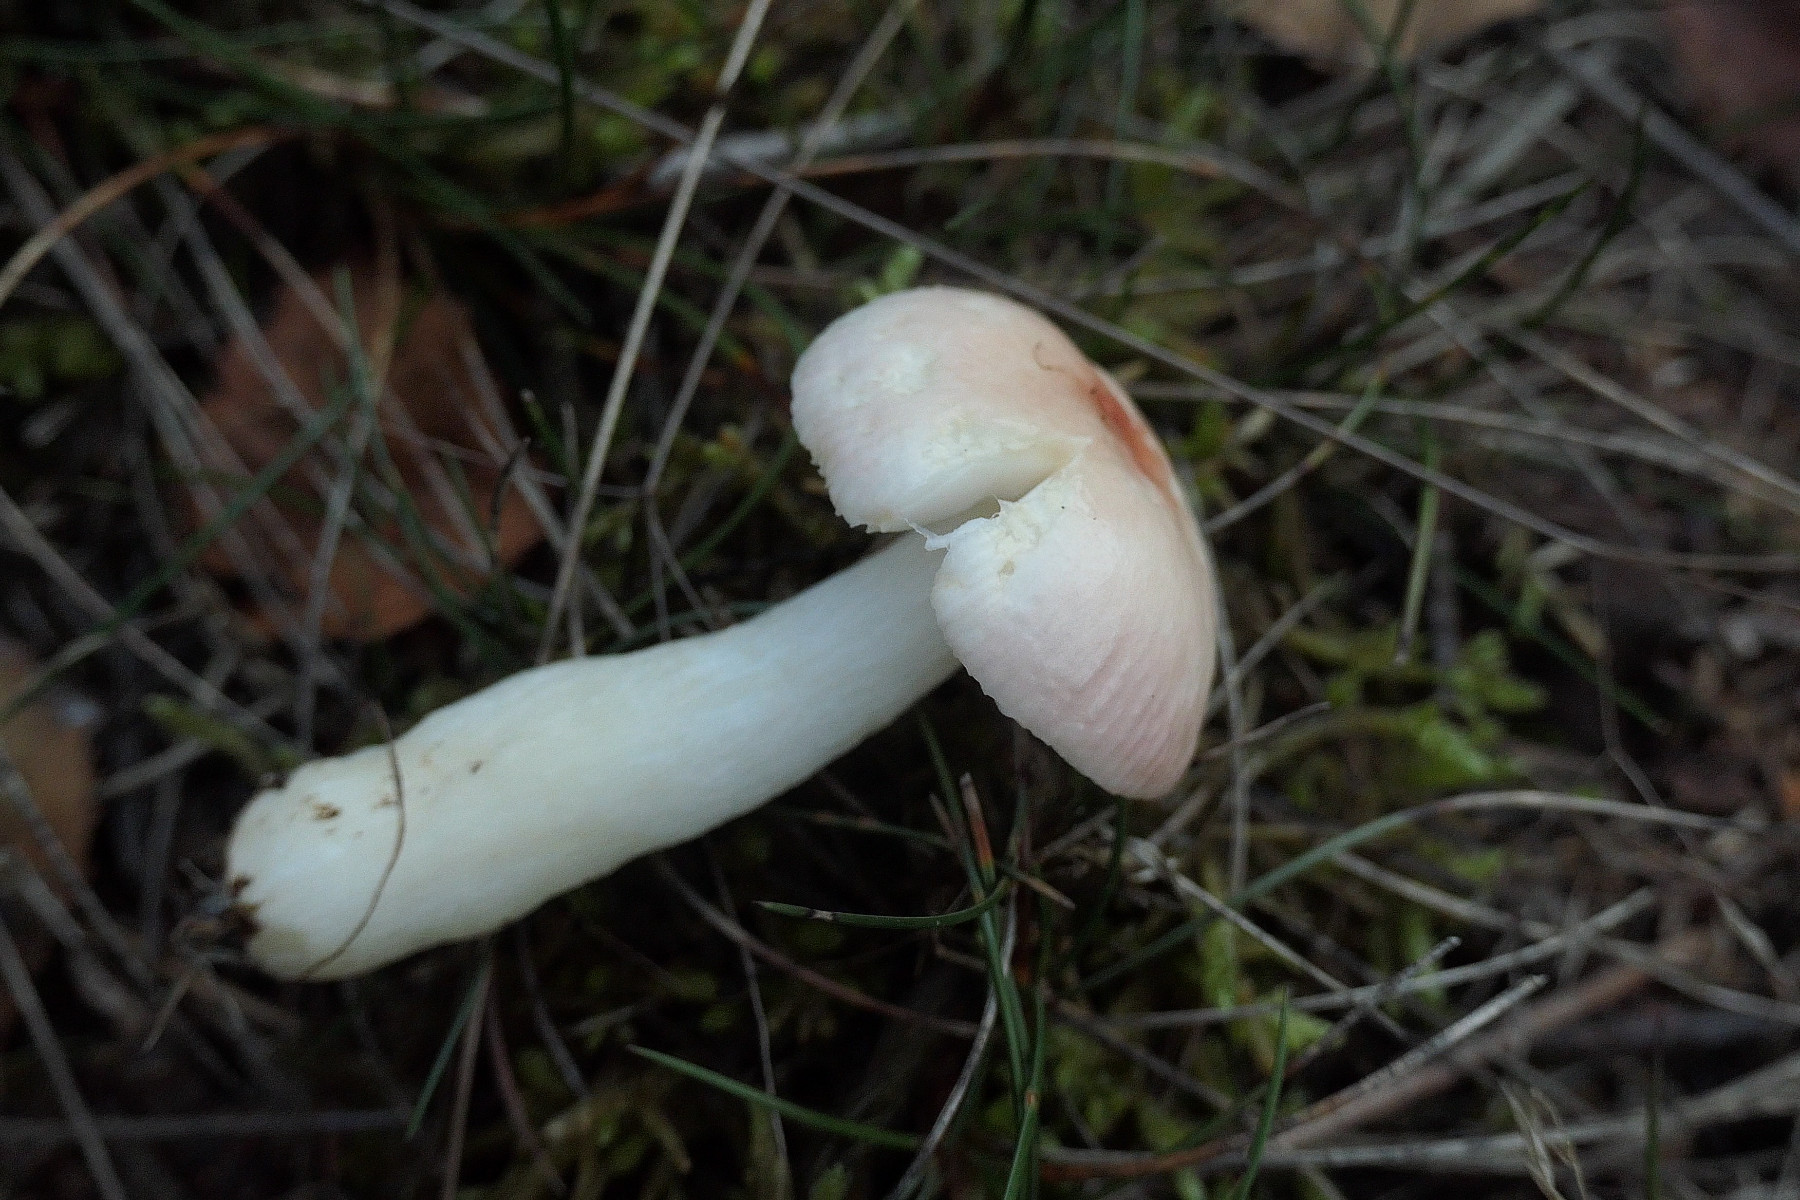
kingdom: Fungi
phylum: Basidiomycota
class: Agaricomycetes
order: Russulales
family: Russulaceae
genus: Russula
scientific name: Russula betularum
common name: bleg gift-skørhat
